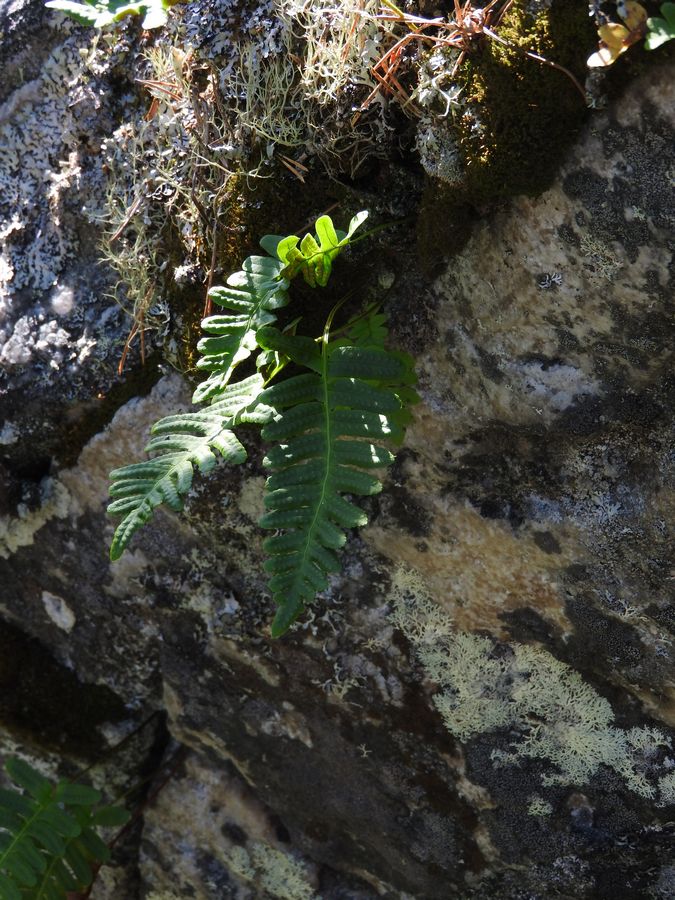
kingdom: Plantae
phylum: Tracheophyta
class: Polypodiopsida
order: Polypodiales
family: Polypodiaceae
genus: Polypodium
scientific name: Polypodium vulgare
